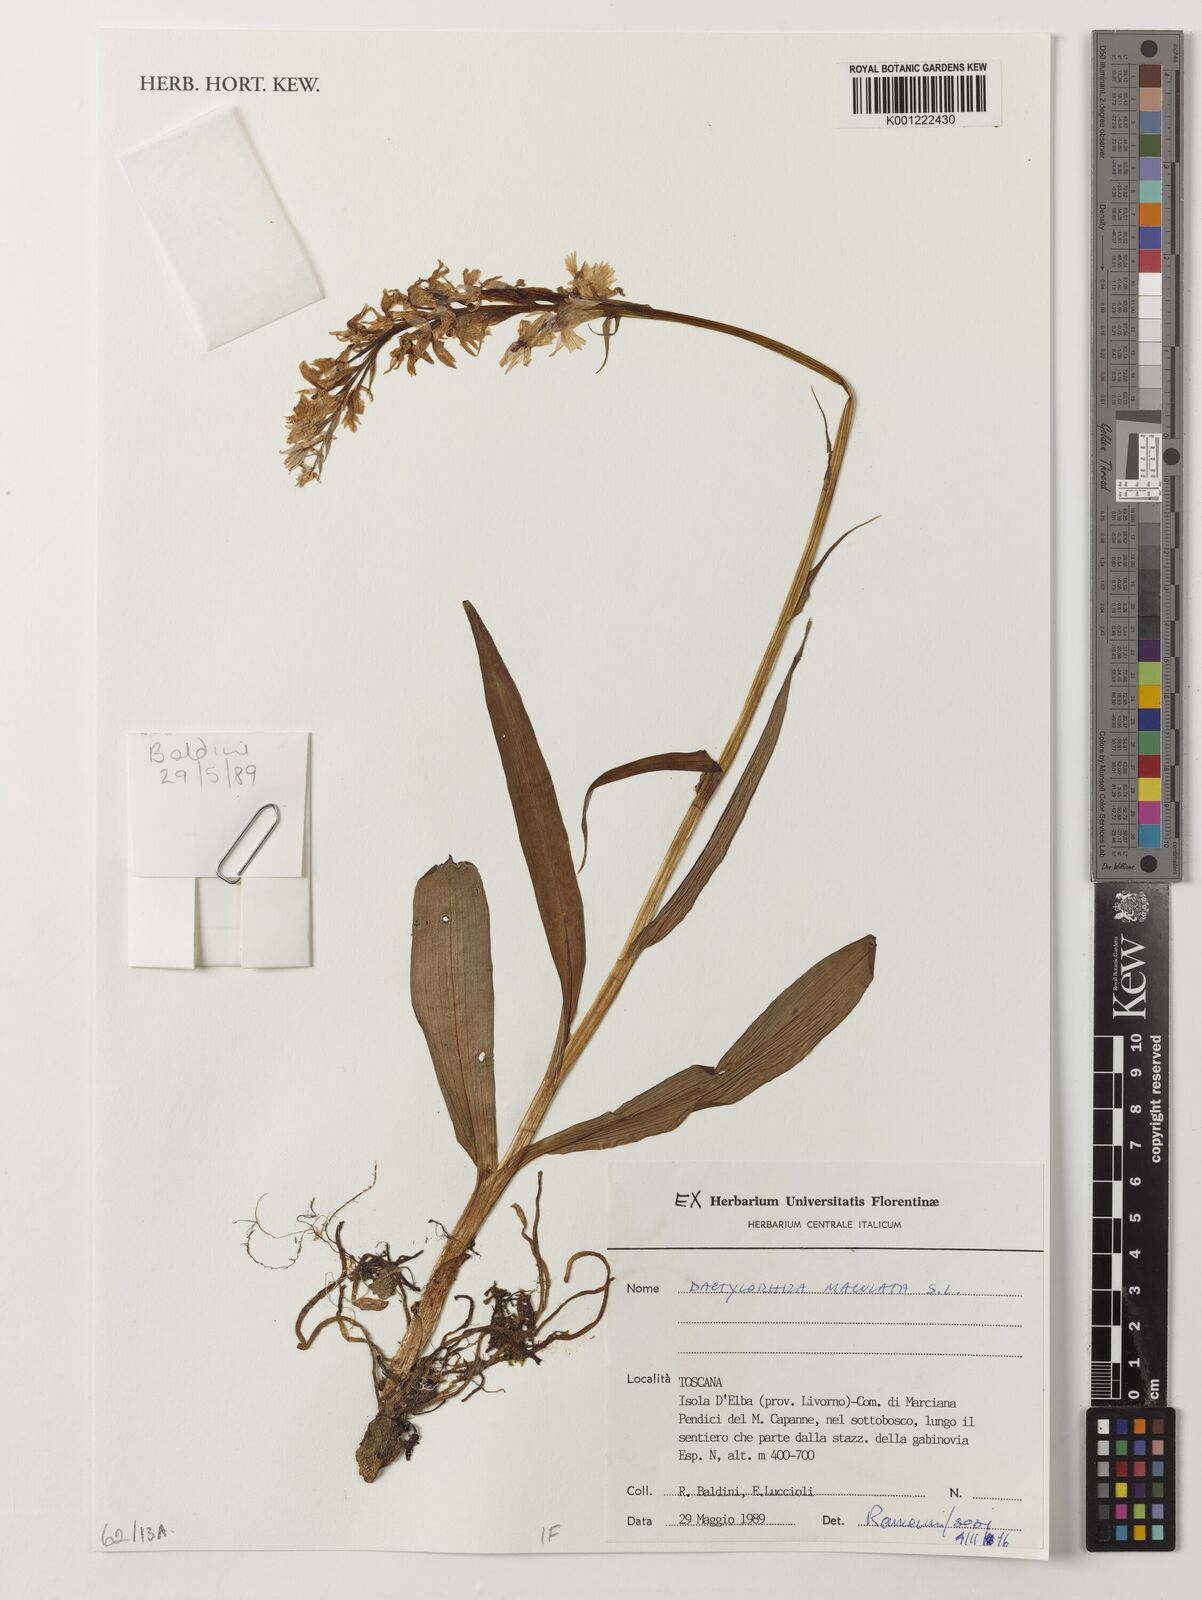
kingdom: Plantae
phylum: Tracheophyta
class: Liliopsida
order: Asparagales
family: Orchidaceae
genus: Orchis
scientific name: Orchis maculana
